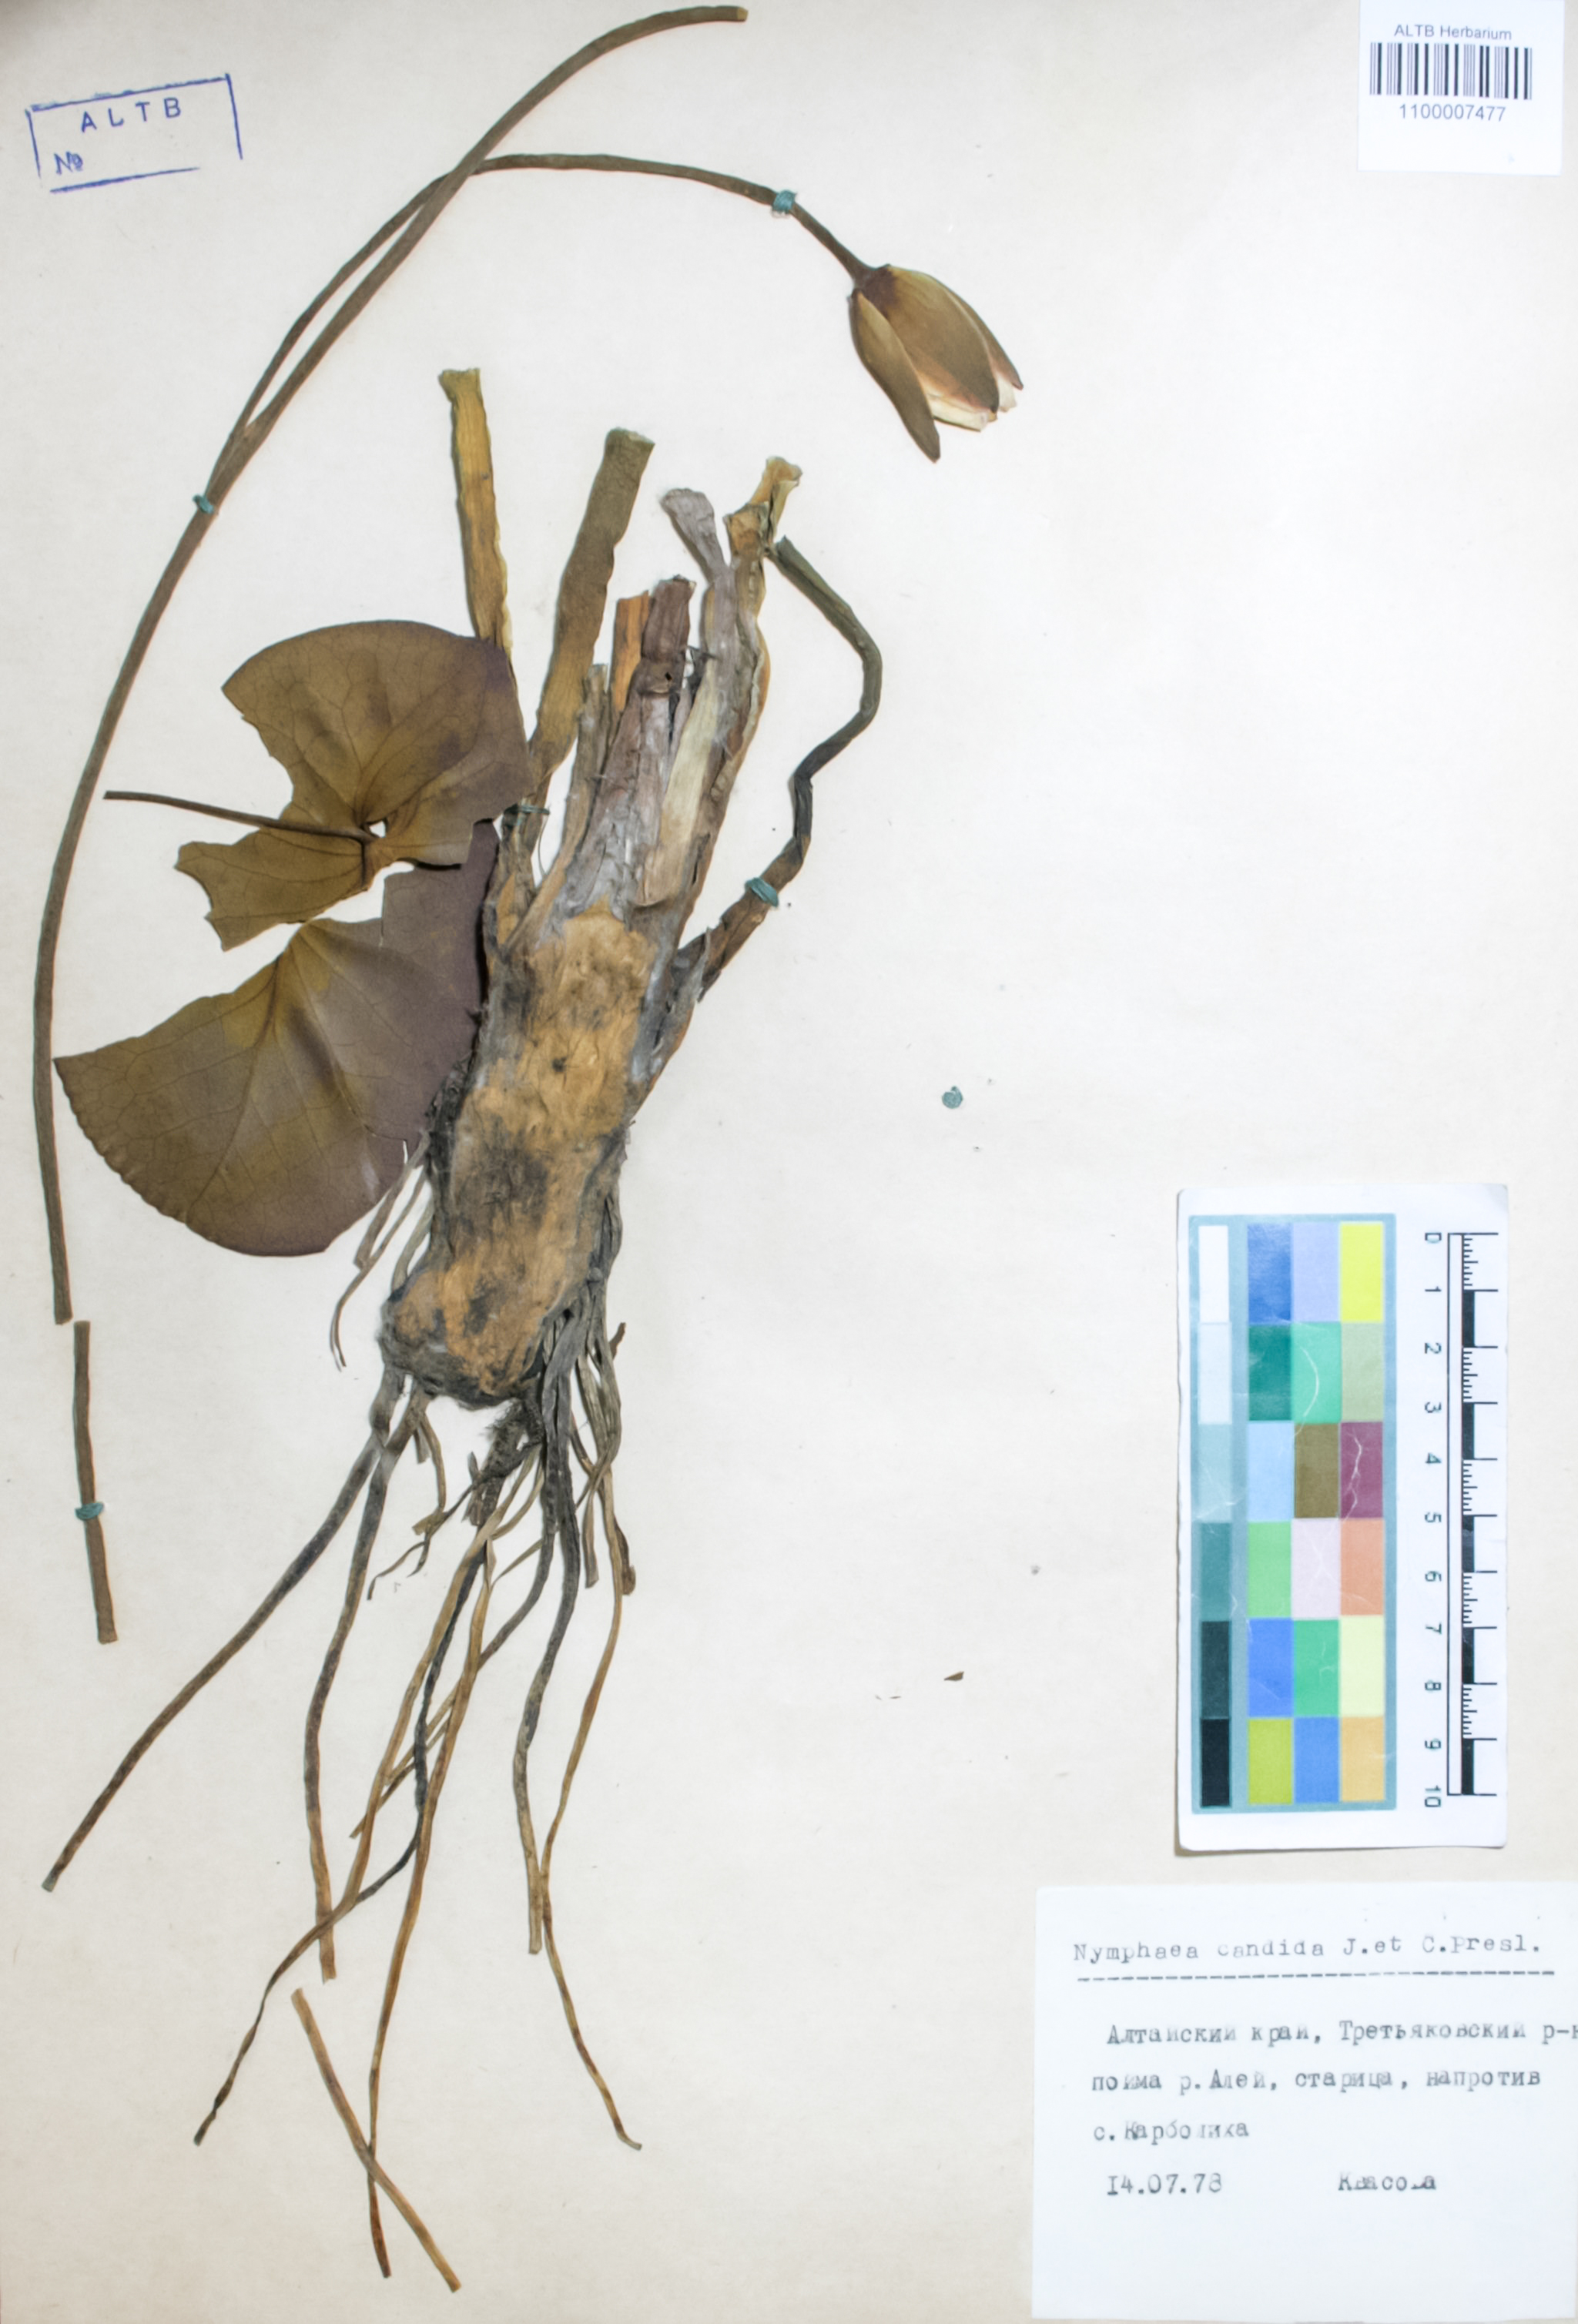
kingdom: Plantae
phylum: Tracheophyta
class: Magnoliopsida
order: Nymphaeales
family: Nymphaeaceae
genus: Nymphaea
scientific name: Nymphaea candida
